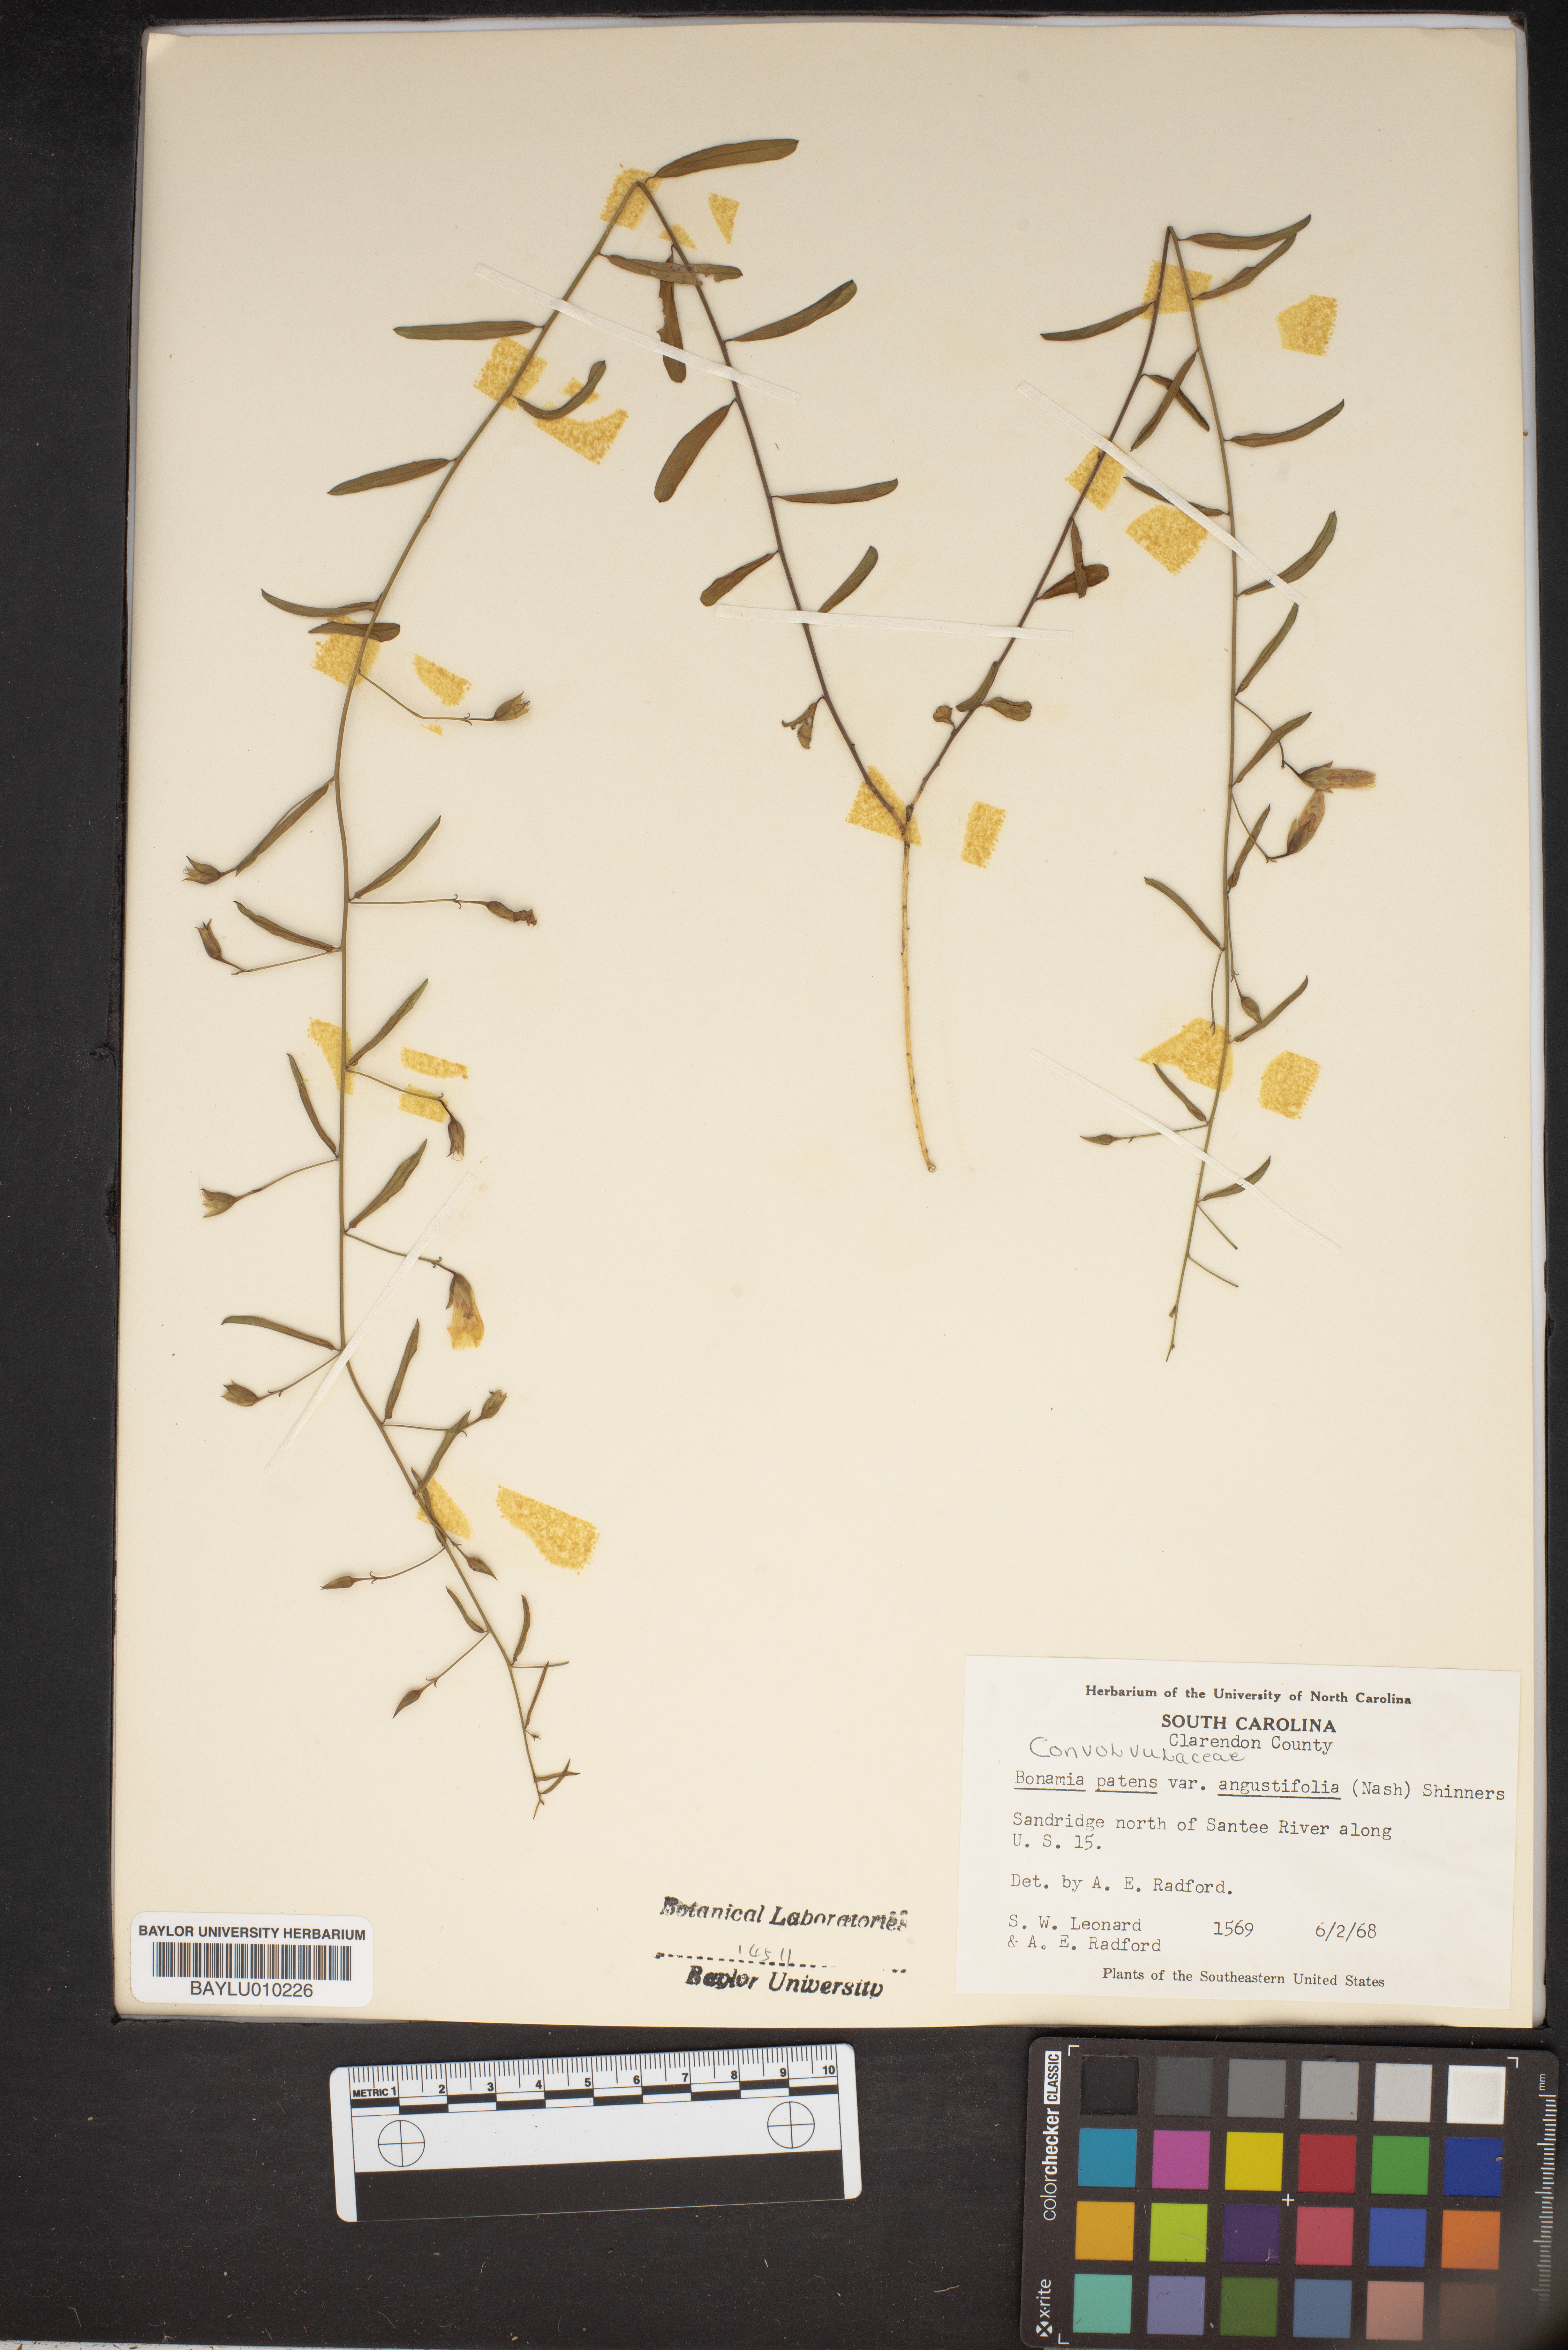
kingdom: Plantae
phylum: Tracheophyta
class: Magnoliopsida
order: Solanales
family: Convolvulaceae
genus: Stylisma
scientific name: Stylisma patens
